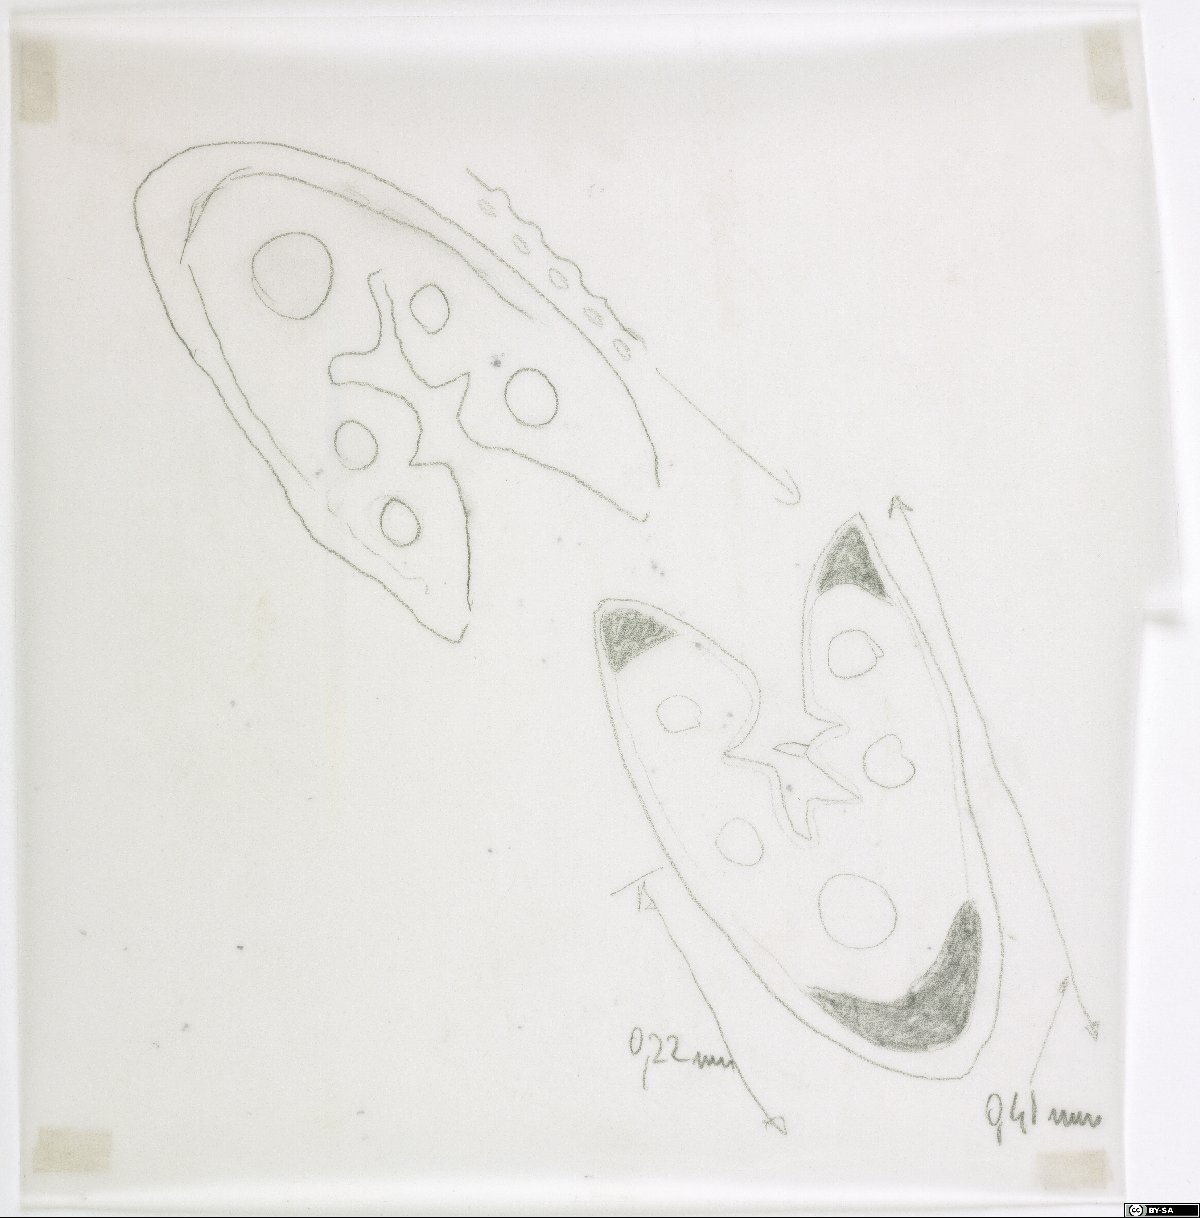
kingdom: Plantae
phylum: Tracheophyta
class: Liliopsida
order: Poales
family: Poaceae
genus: Festuca
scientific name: Festuca valesiaca
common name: Volga fescue
